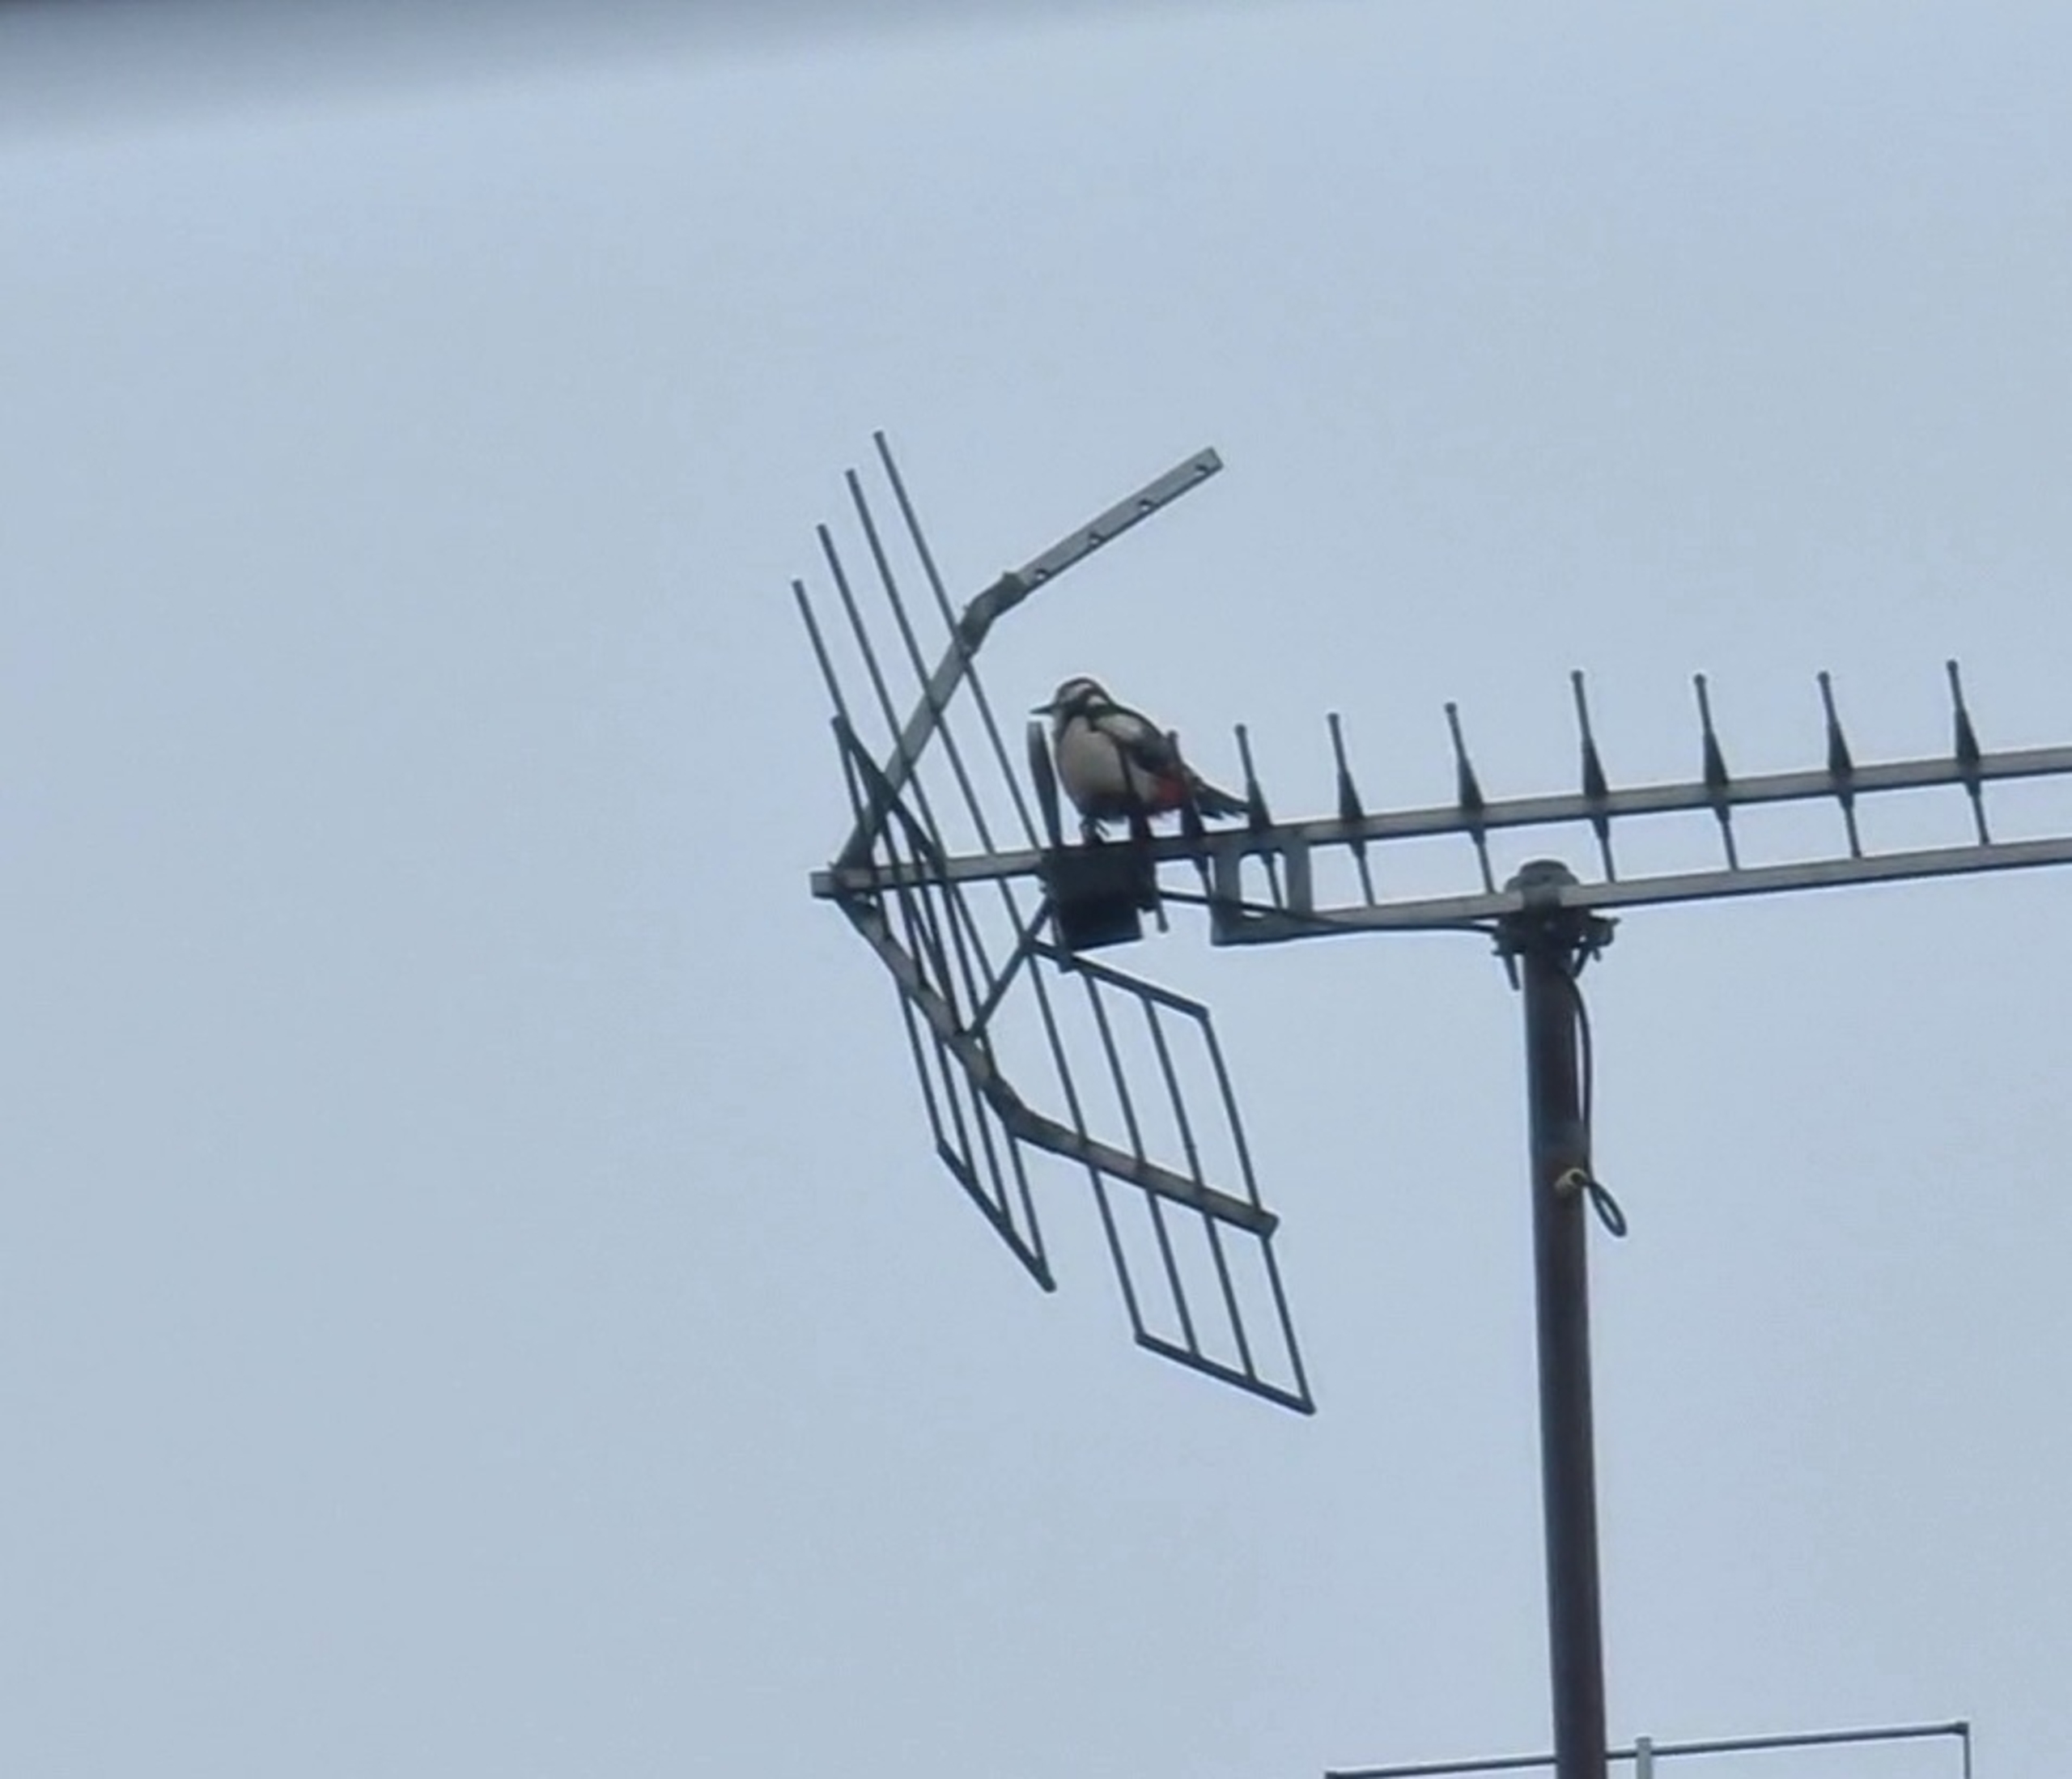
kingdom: Animalia
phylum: Chordata
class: Aves
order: Piciformes
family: Picidae
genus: Dendrocopos
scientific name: Dendrocopos major
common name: Stor flagspætte
